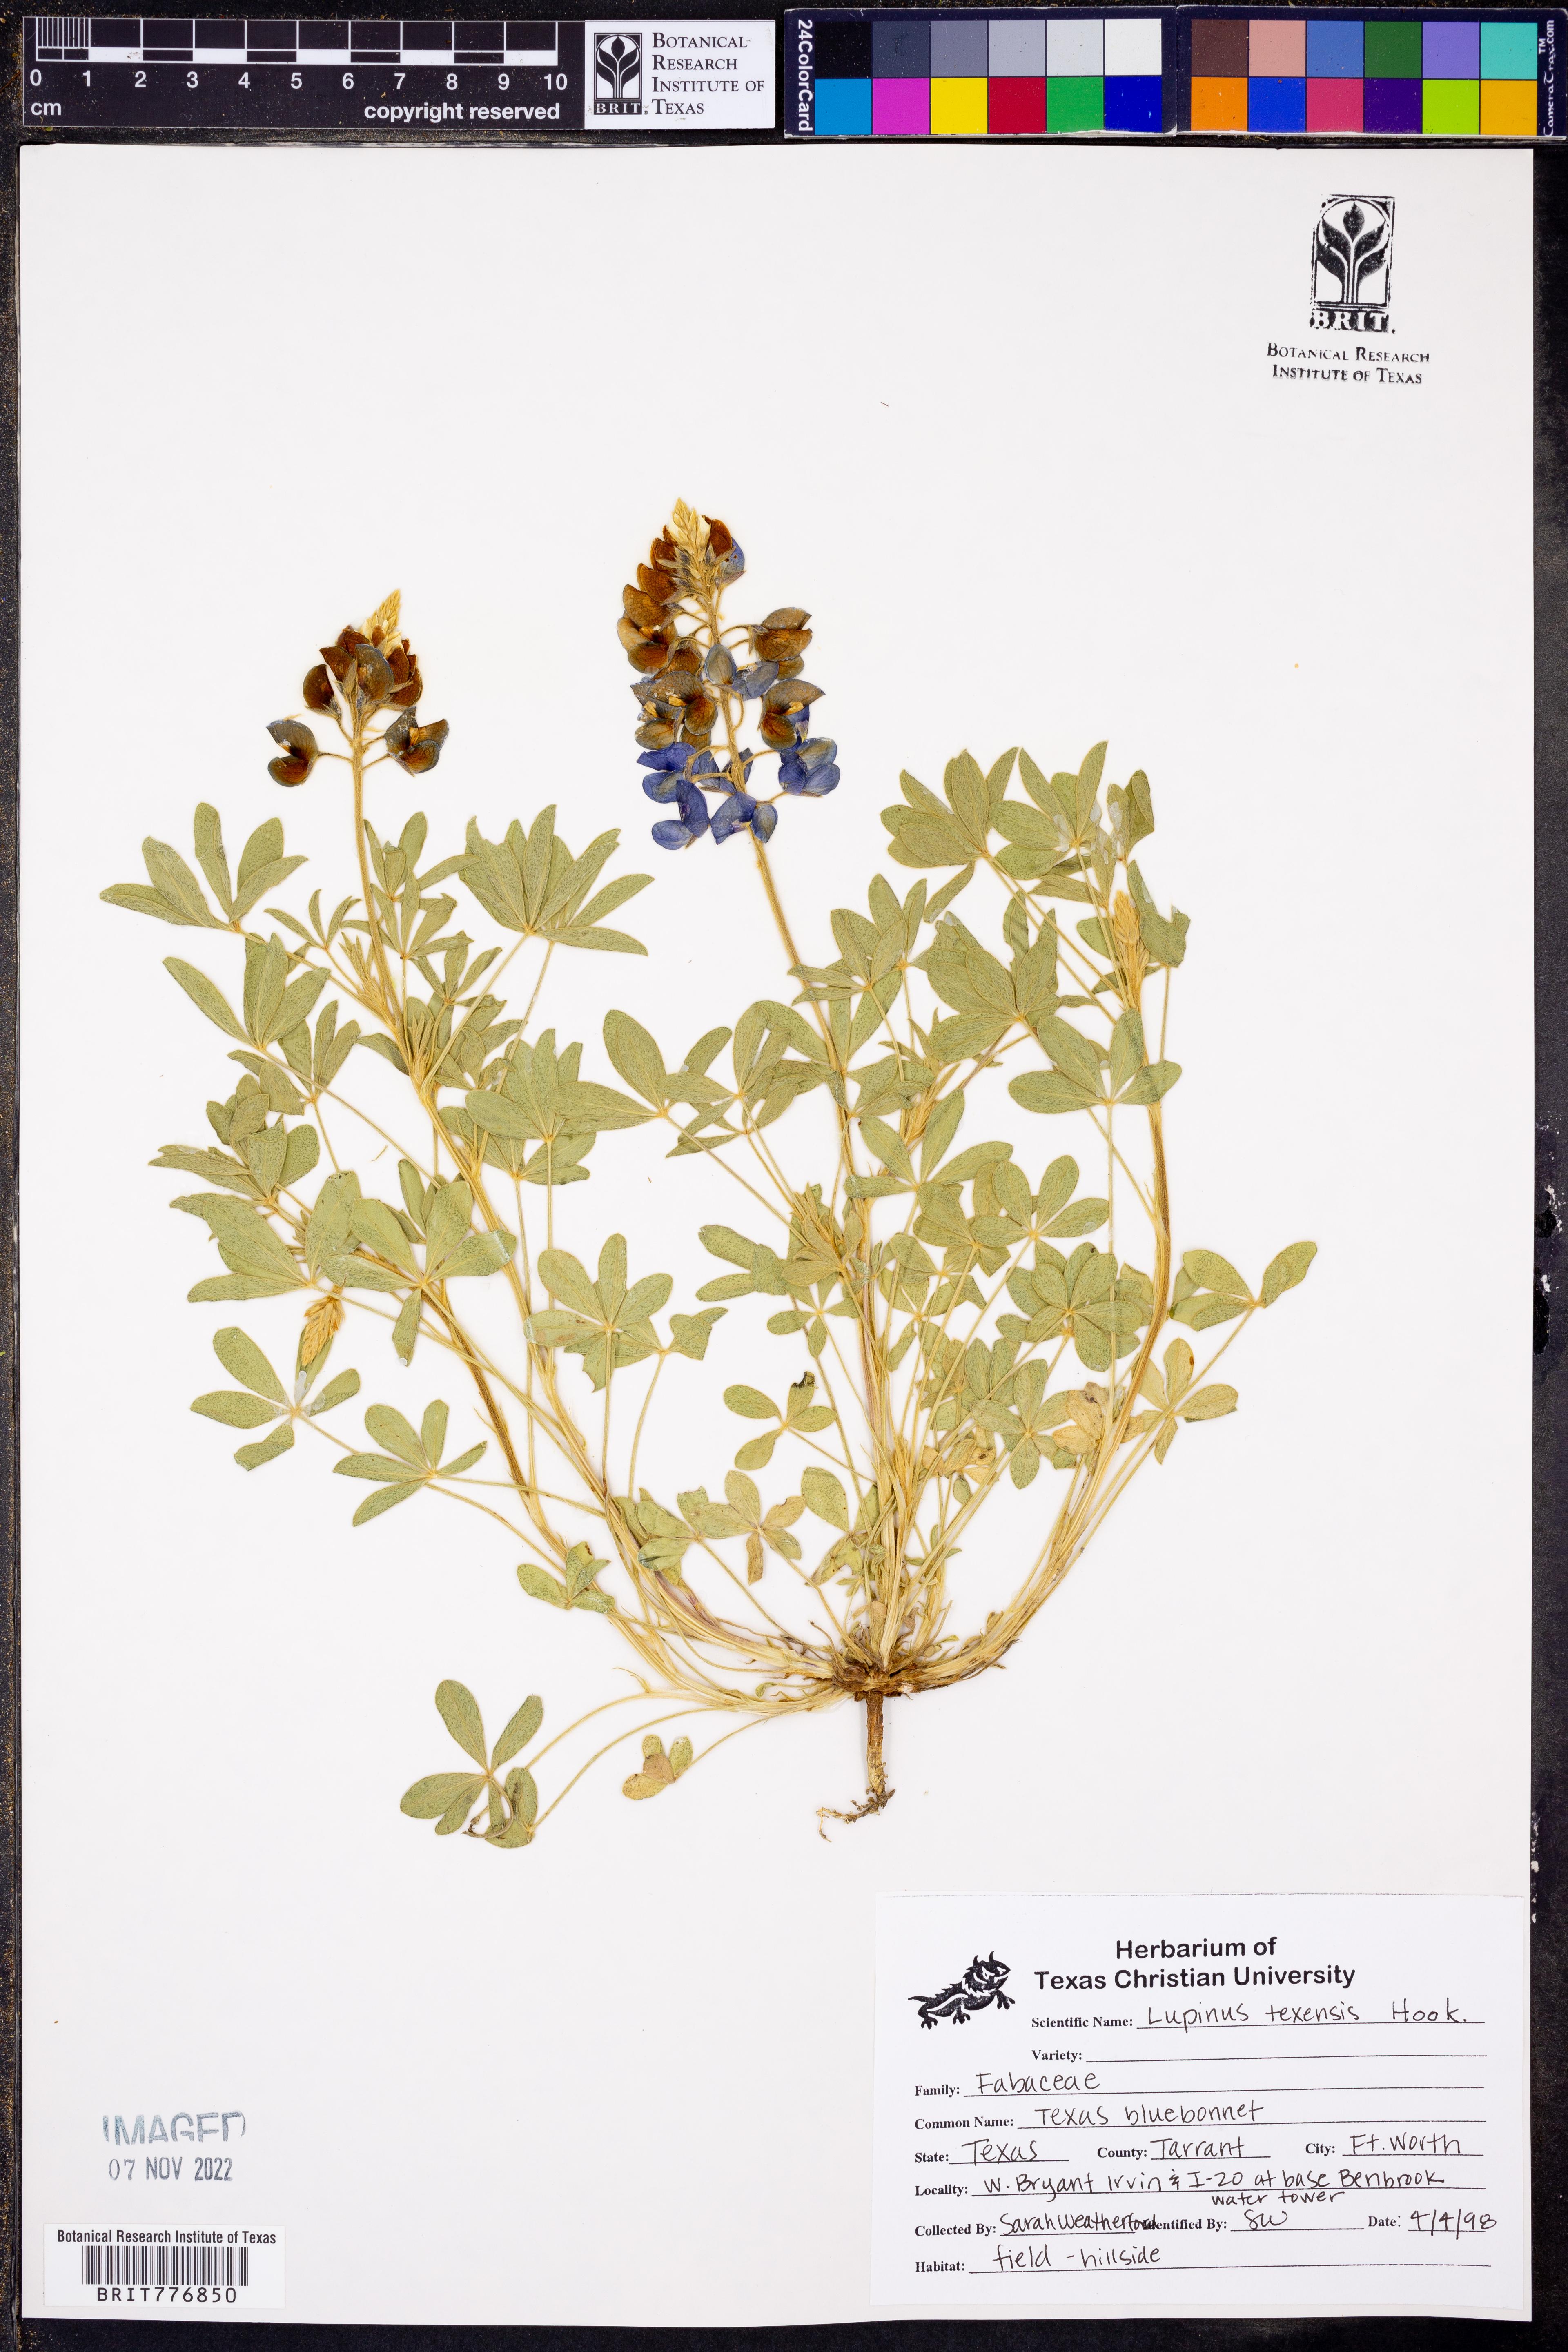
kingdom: Plantae
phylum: Tracheophyta
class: Magnoliopsida
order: Fabales
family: Fabaceae
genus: Lupinus
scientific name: Lupinus texensis
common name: Texas bluebonnet
